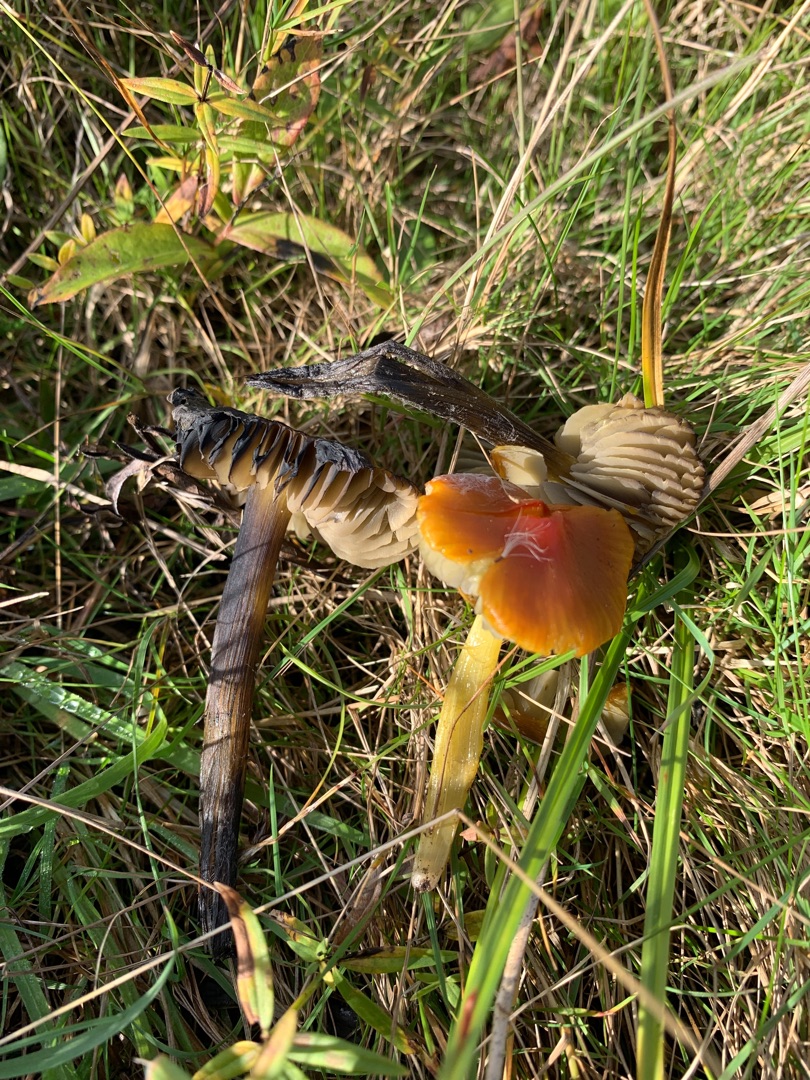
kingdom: Fungi
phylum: Basidiomycota
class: Agaricomycetes
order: Agaricales
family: Hygrophoraceae
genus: Hygrocybe
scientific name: Hygrocybe conica
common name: Kegle-vokshat
